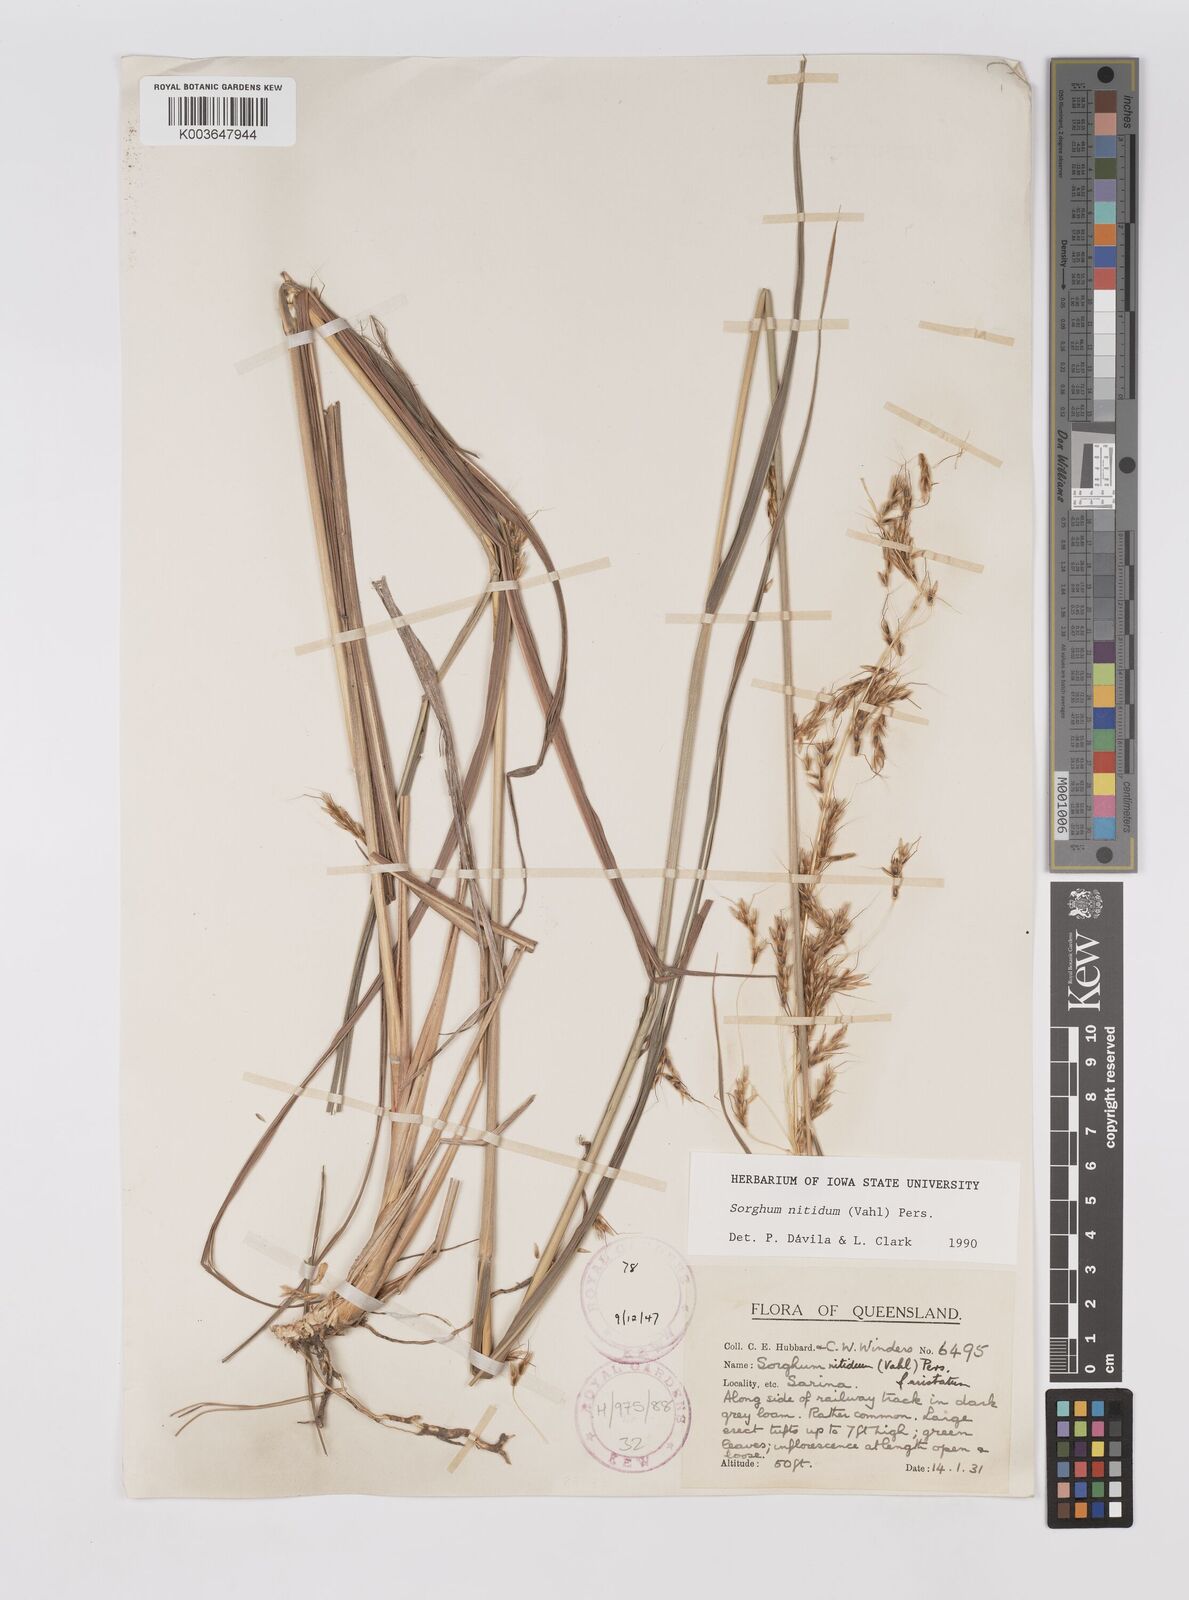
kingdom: Plantae
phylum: Tracheophyta
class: Liliopsida
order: Poales
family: Poaceae
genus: Sorghum
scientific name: Sorghum nitidum
